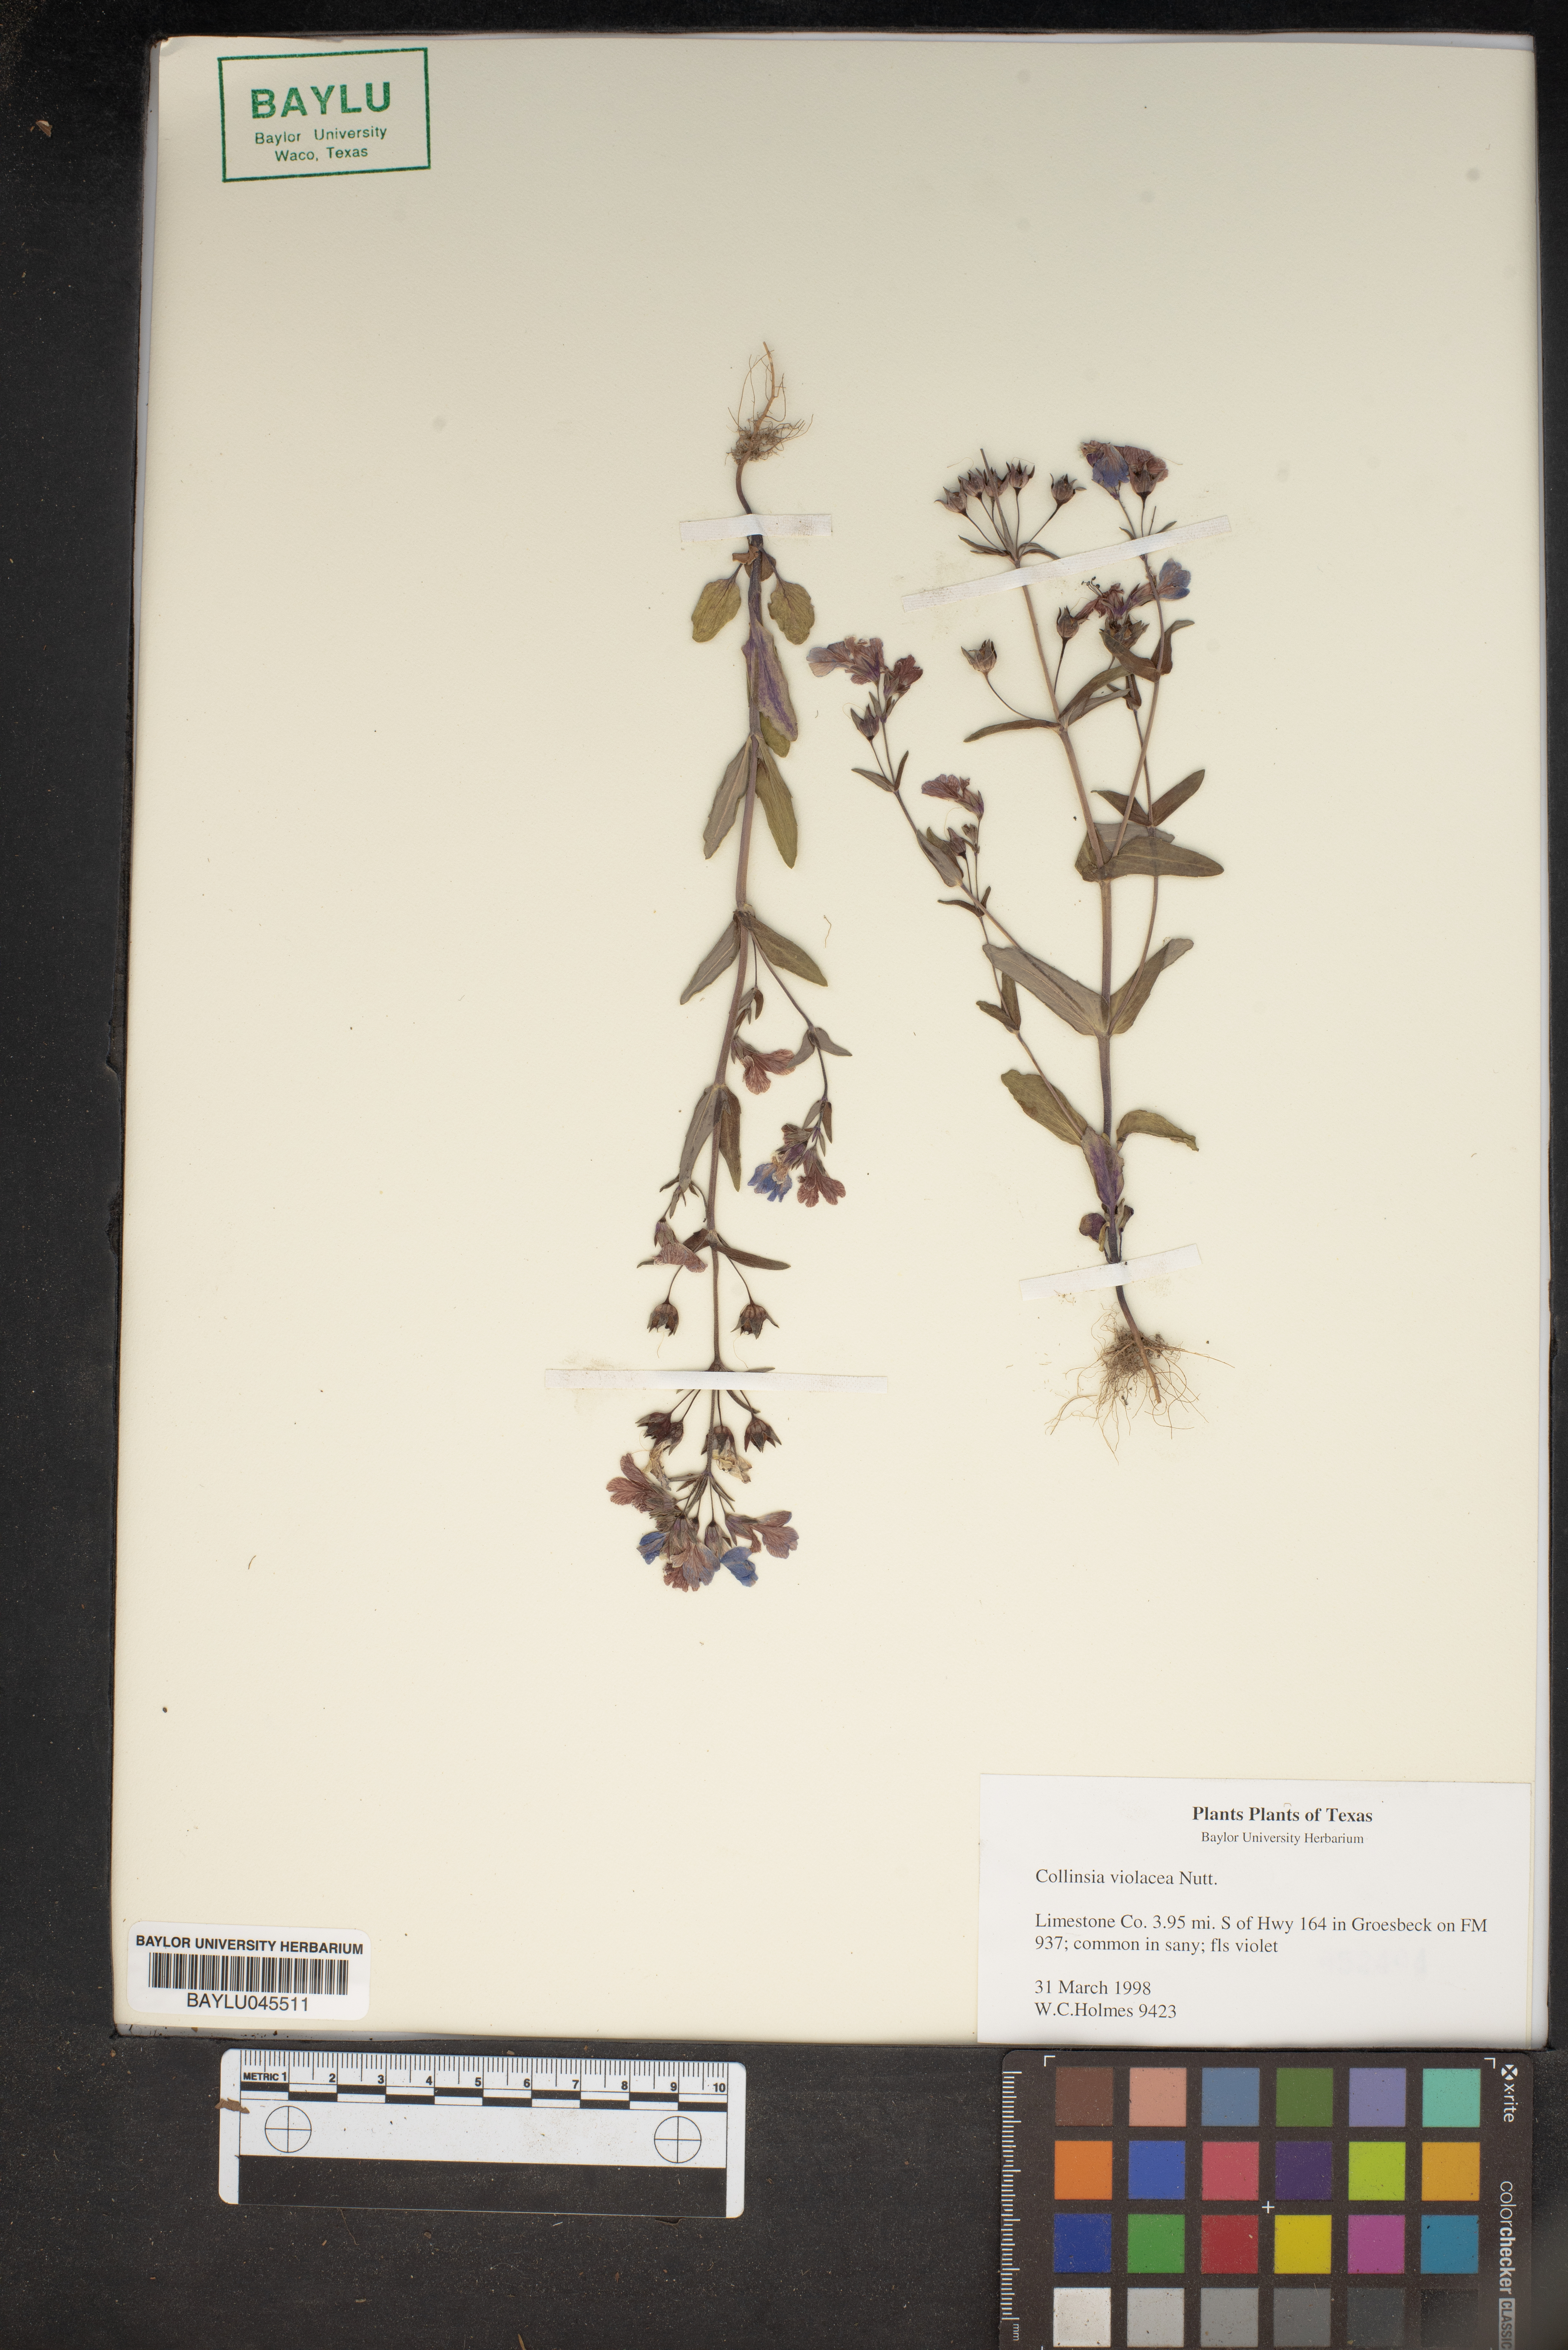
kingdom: Plantae
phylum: Tracheophyta
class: Magnoliopsida
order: Lamiales
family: Plantaginaceae
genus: Collinsia
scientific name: Collinsia violacea
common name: Violet collinsia
